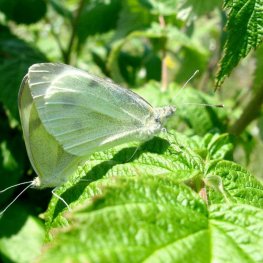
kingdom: Animalia
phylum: Arthropoda
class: Insecta
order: Lepidoptera
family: Pieridae
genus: Pieris
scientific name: Pieris rapae
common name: Cabbage White
